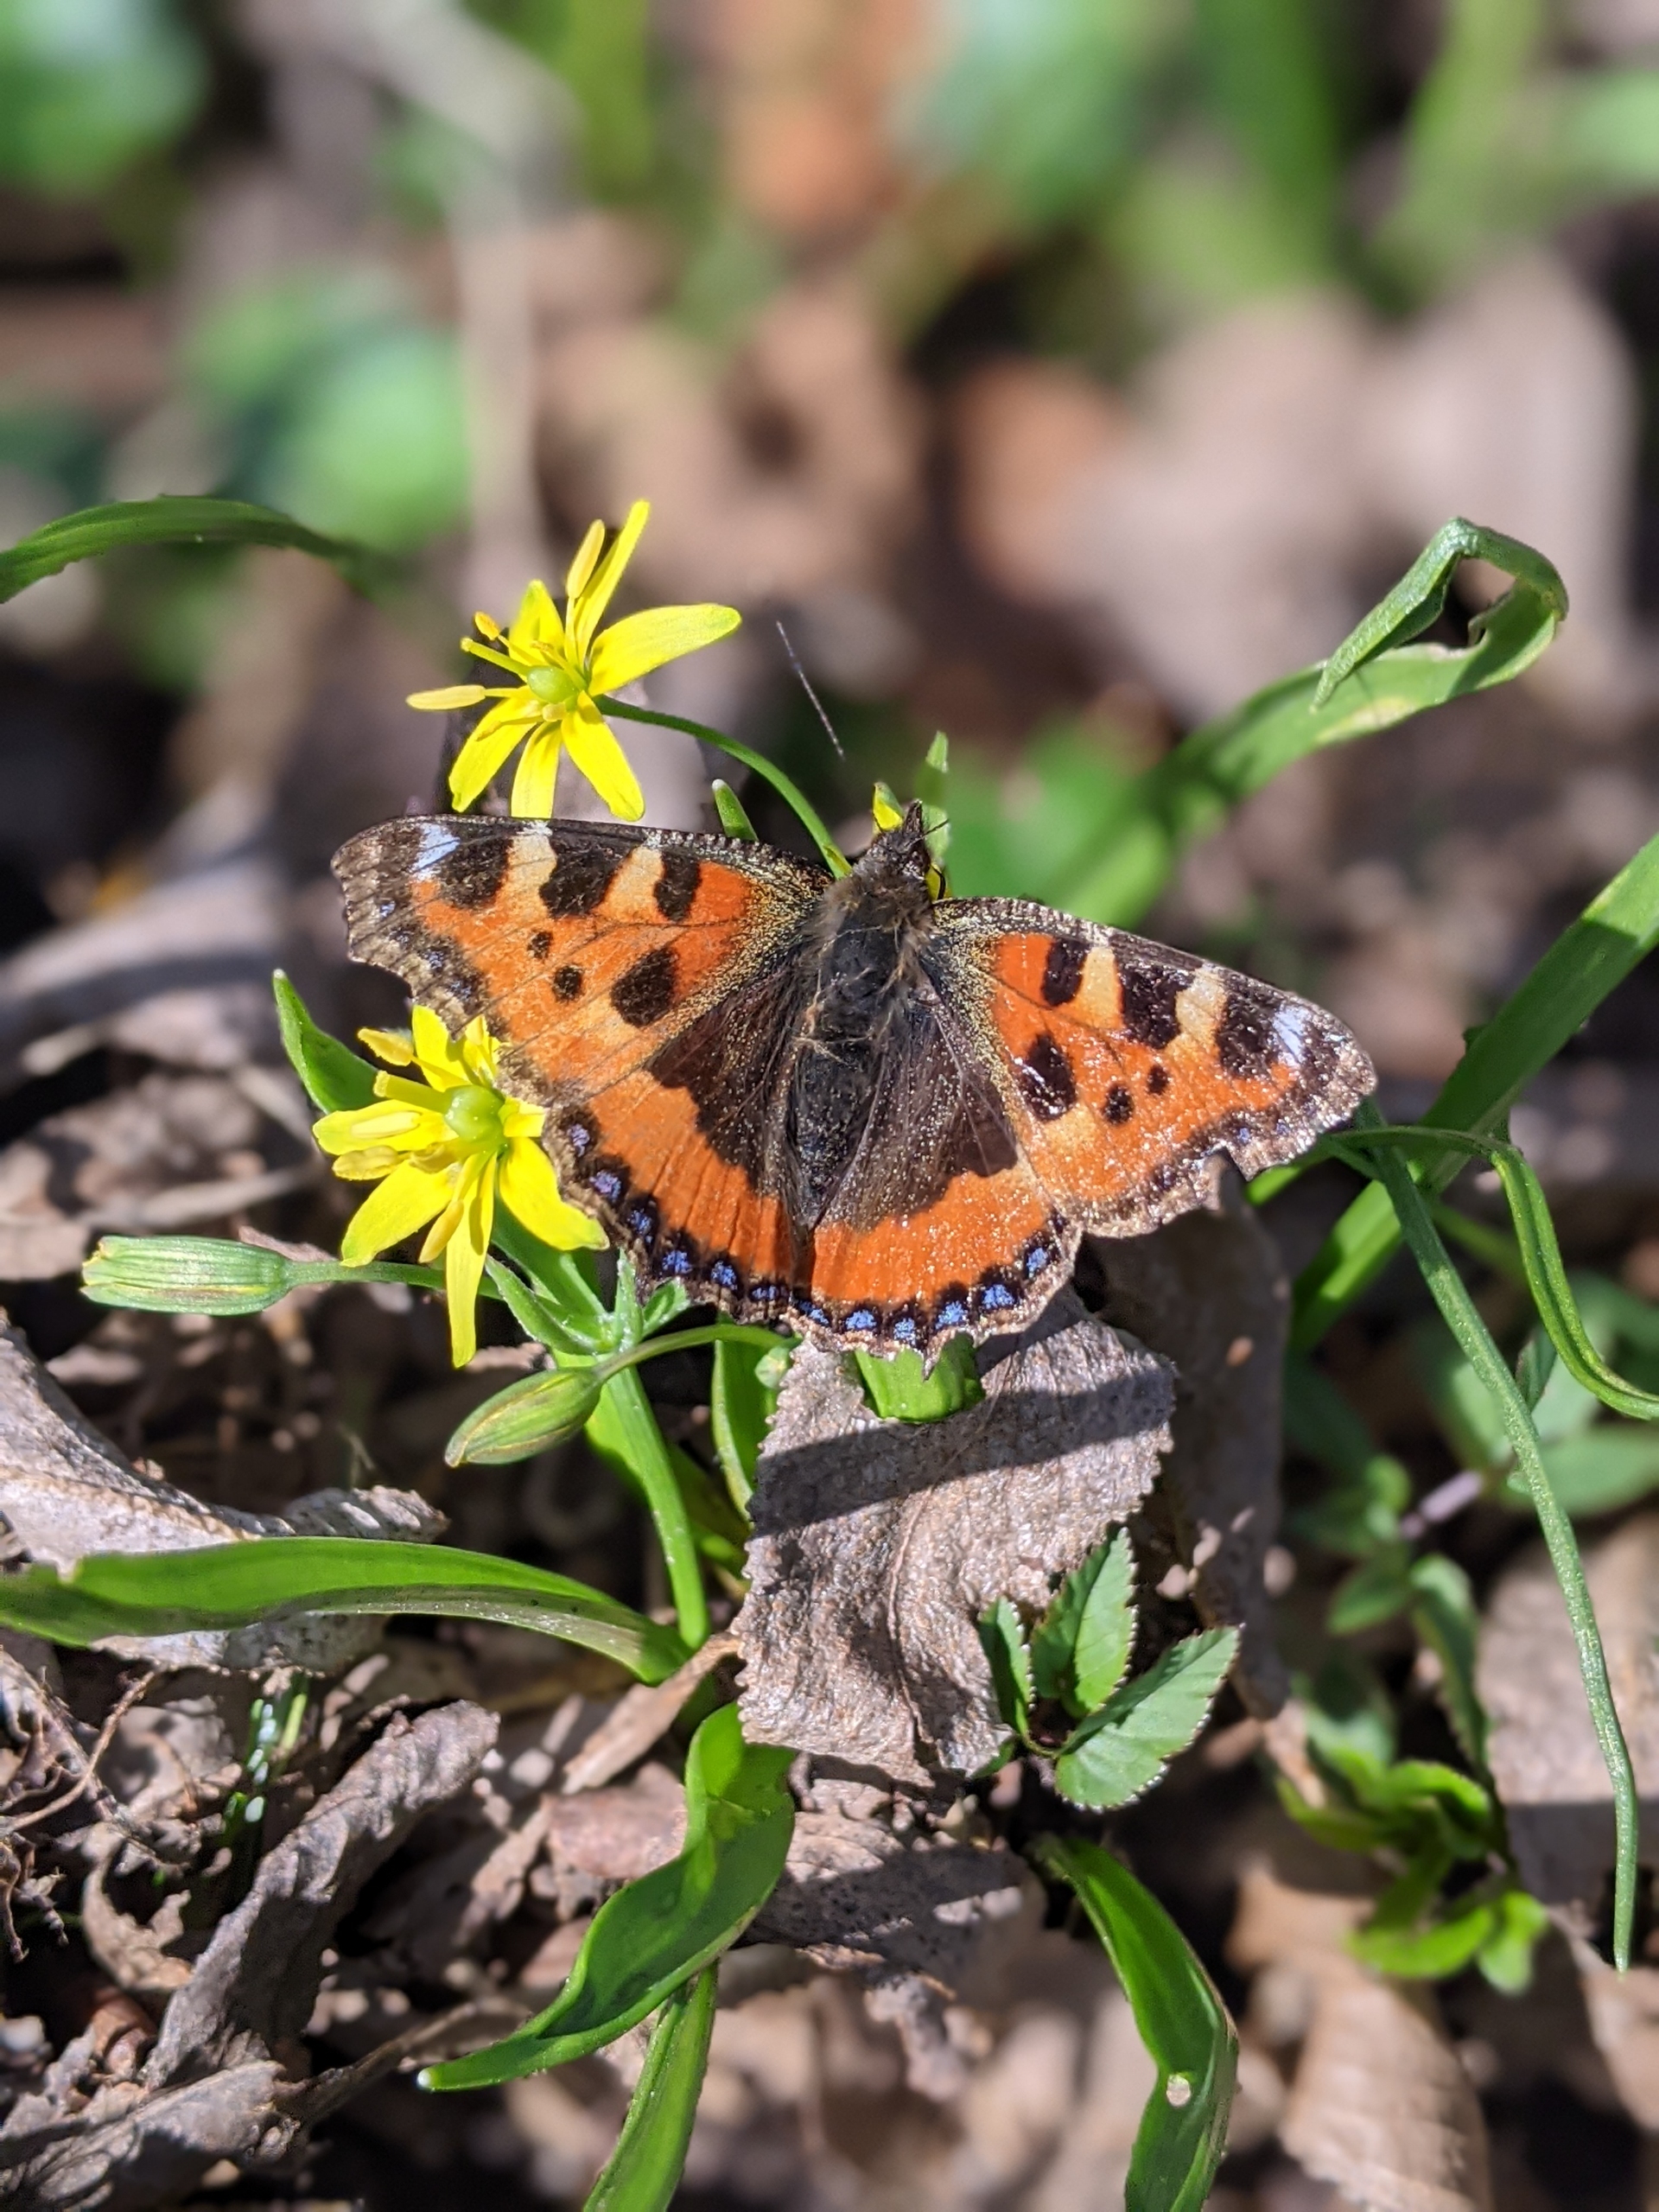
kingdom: Animalia
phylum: Arthropoda
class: Insecta
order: Lepidoptera
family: Nymphalidae
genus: Aglais
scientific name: Aglais urticae
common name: Nældens takvinge
